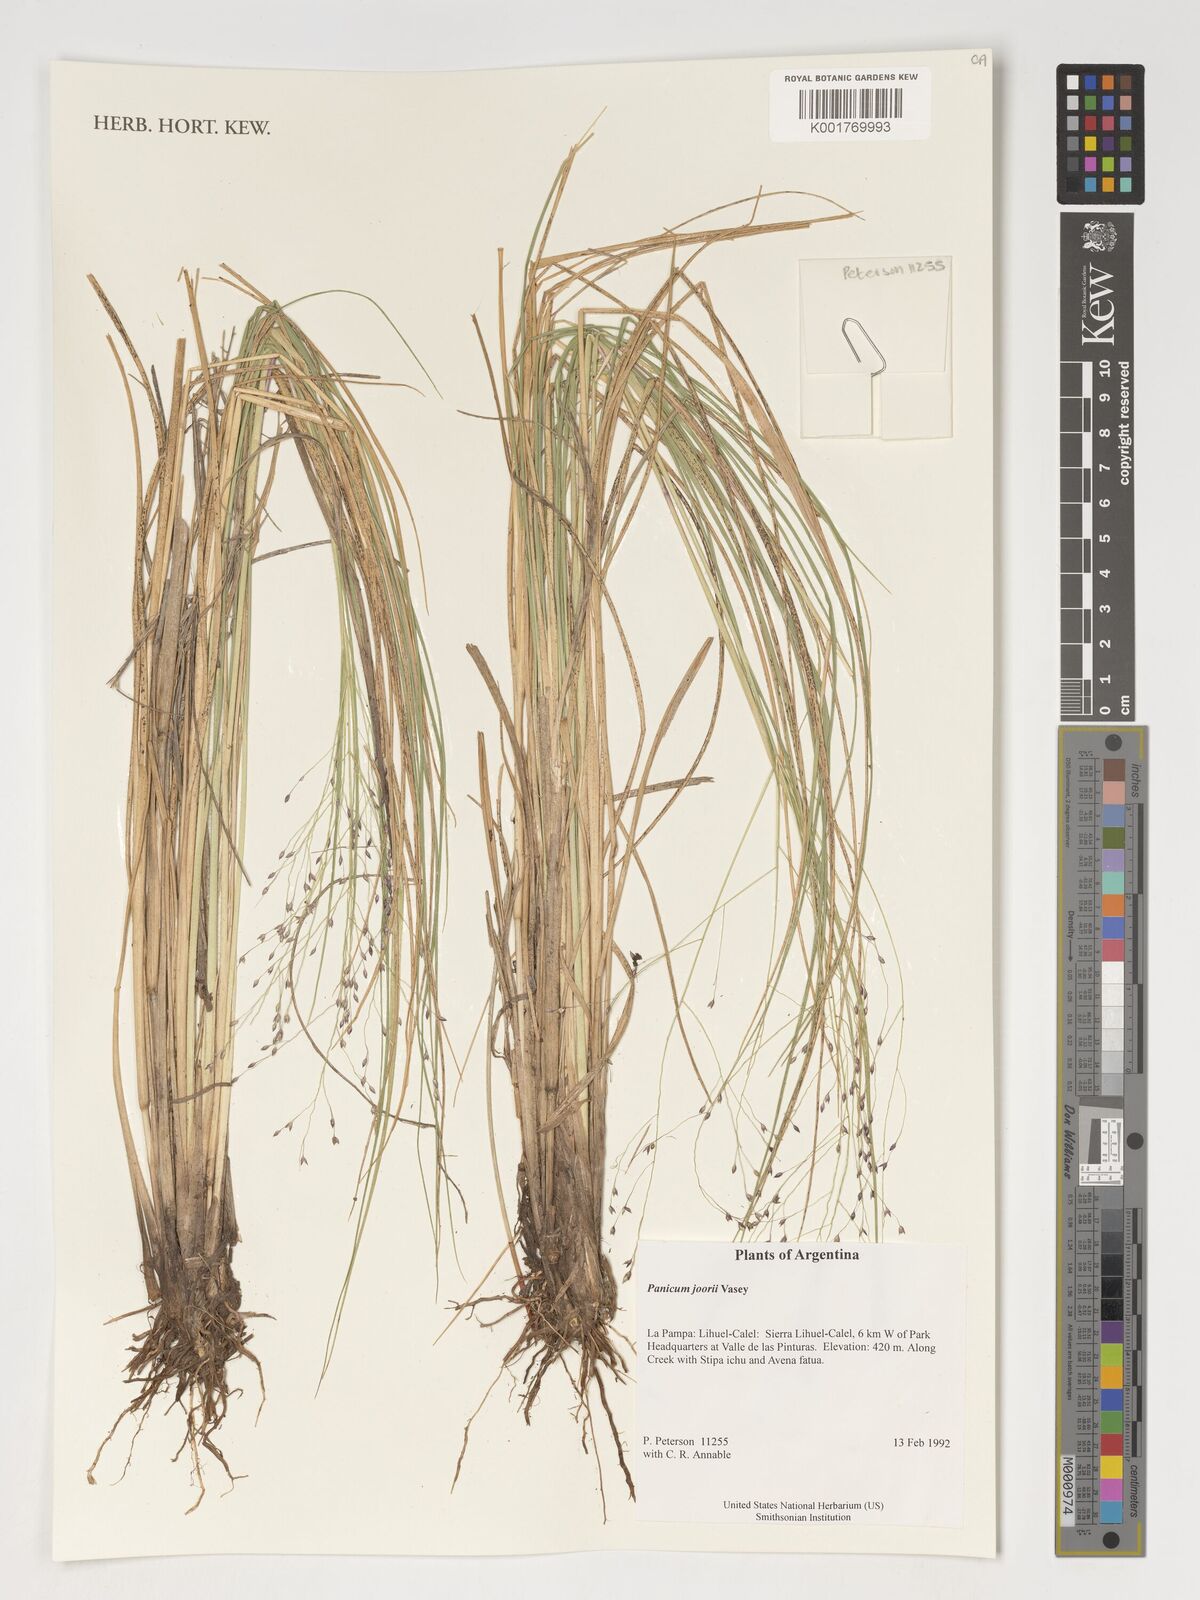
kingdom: Plantae
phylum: Tracheophyta
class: Liliopsida
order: Poales
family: Poaceae
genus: Dichanthelium
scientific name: Dichanthelium commutatum
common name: Variable witchgrass
